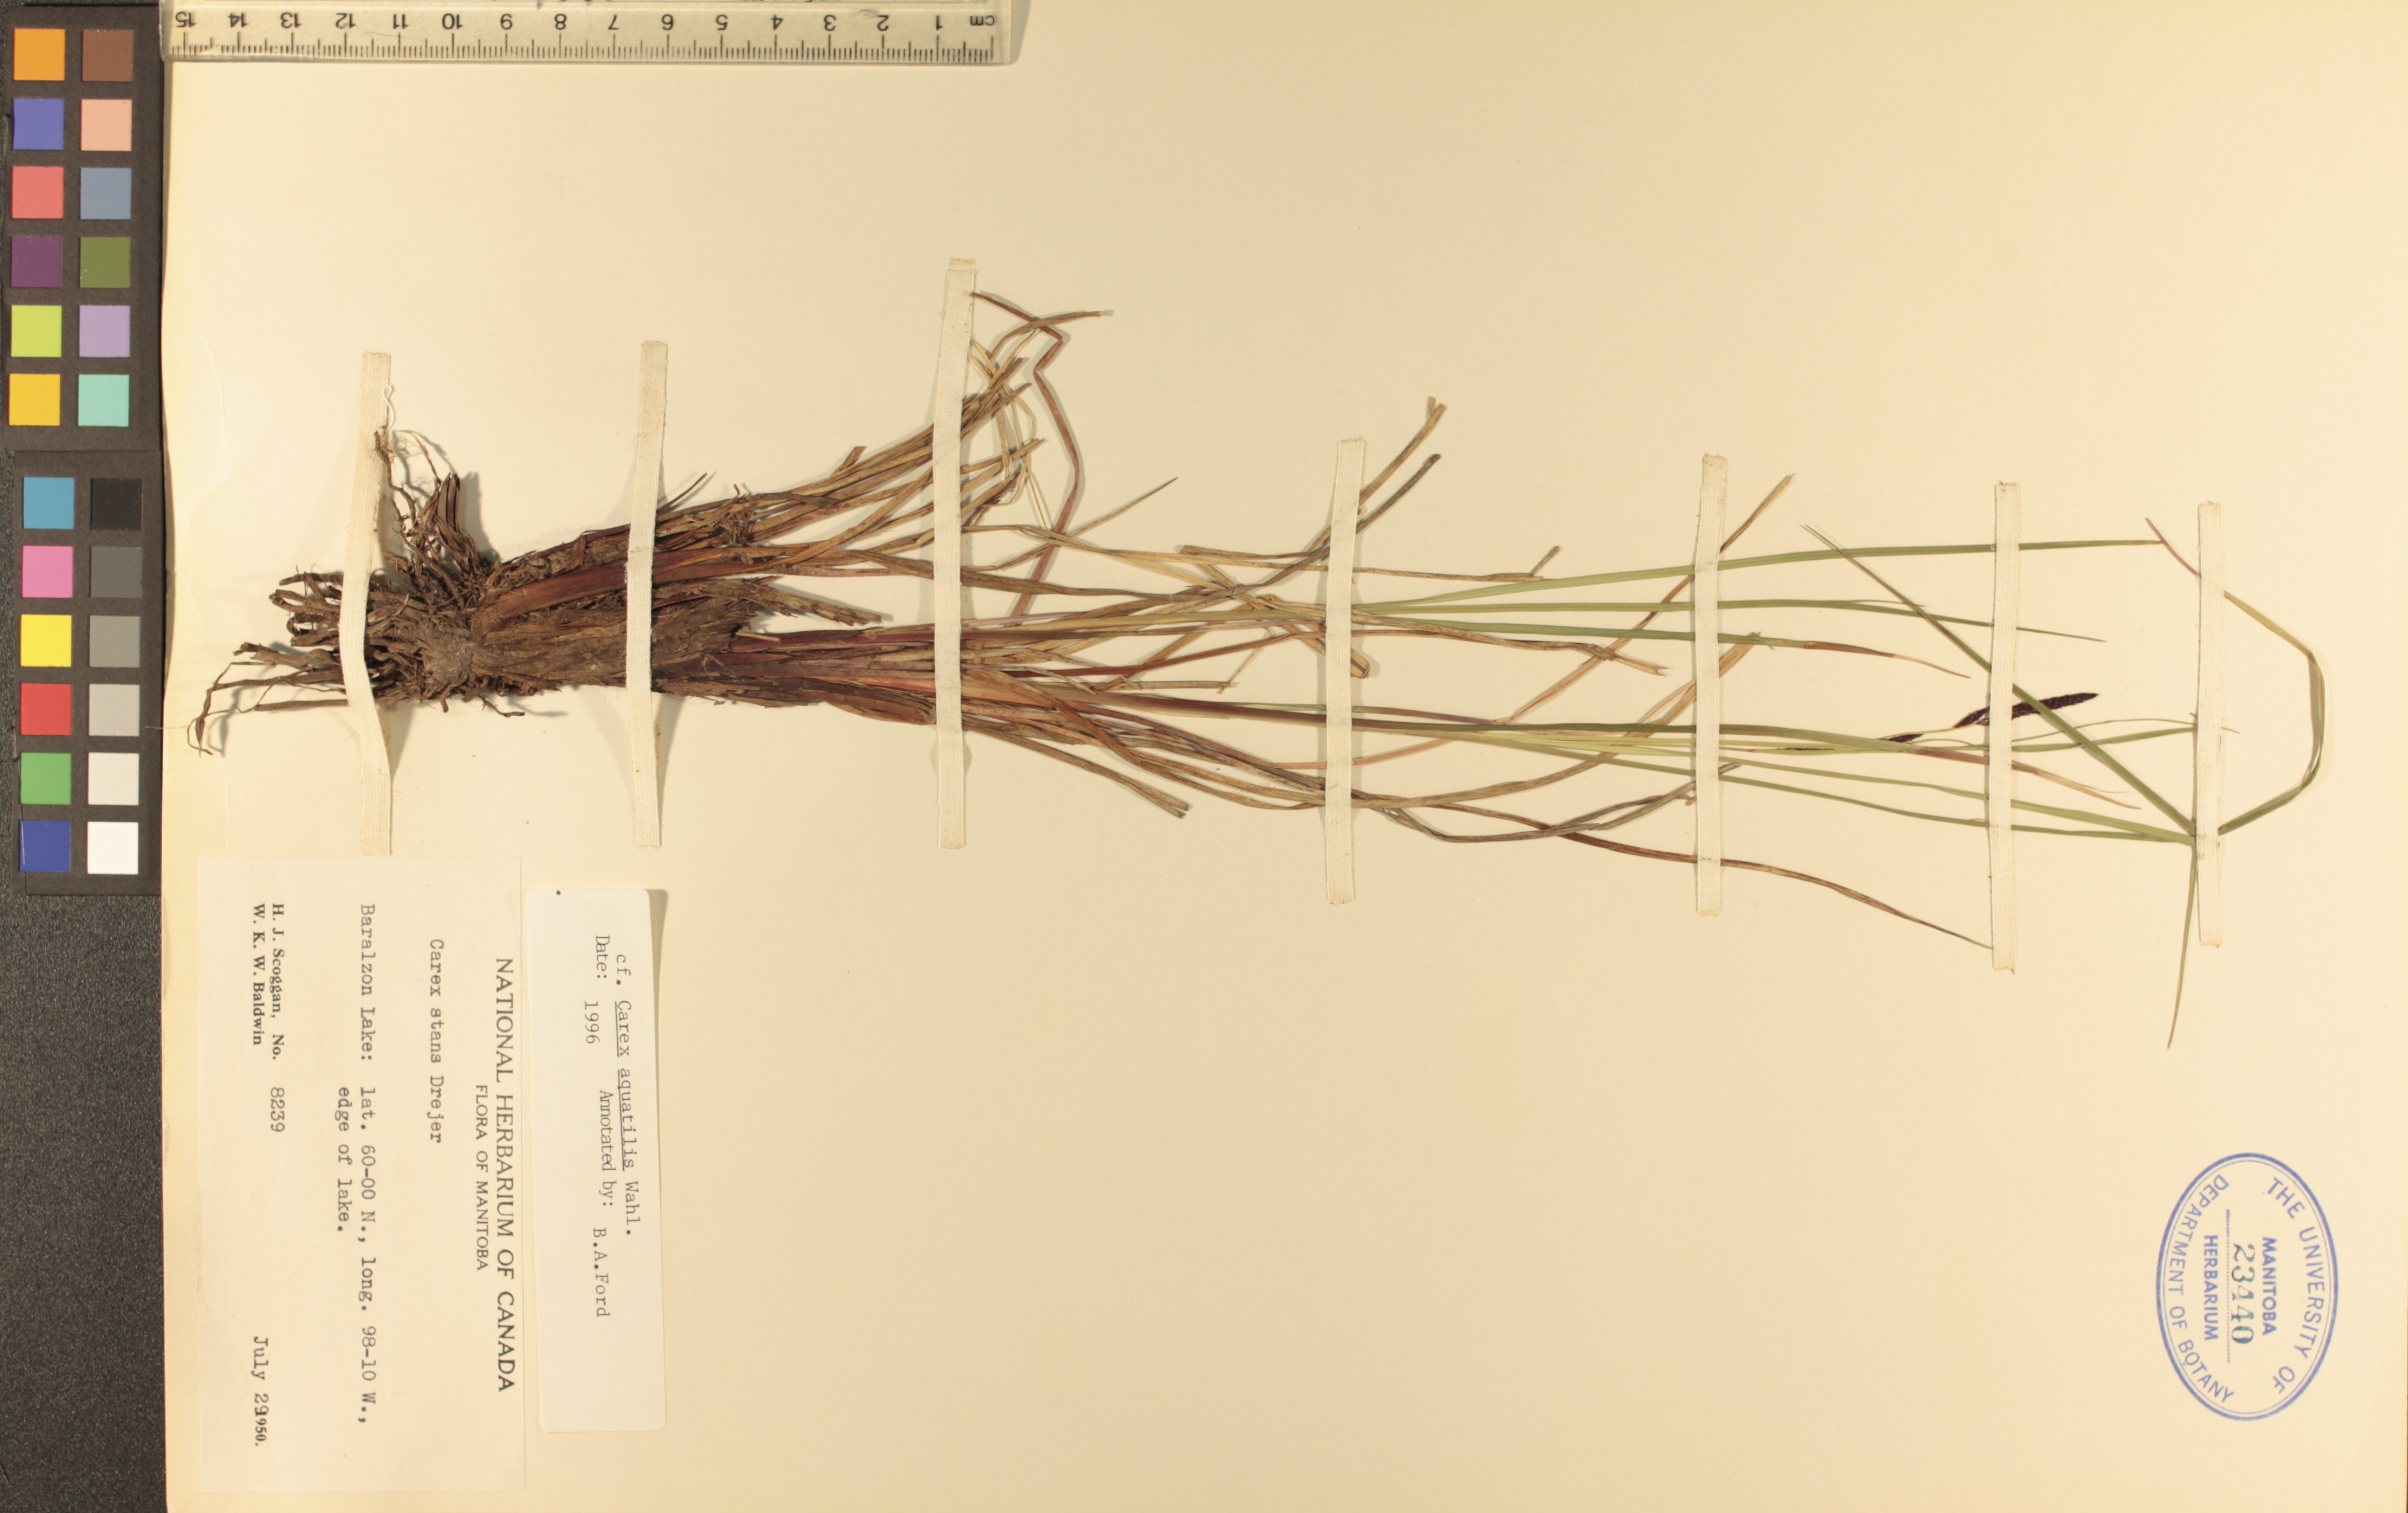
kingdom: Plantae
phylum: Tracheophyta
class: Liliopsida
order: Poales
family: Cyperaceae
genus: Carex
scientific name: Carex aquatilis
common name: Water sedge
